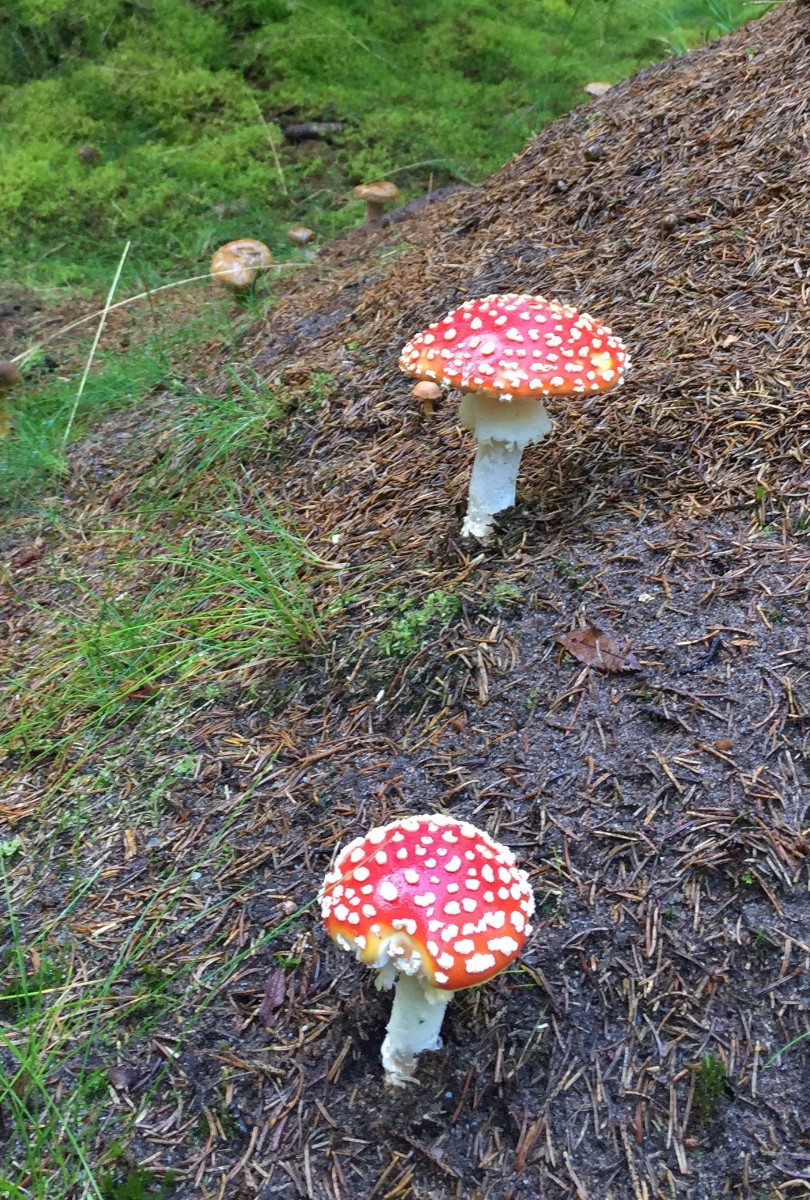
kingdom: Fungi
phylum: Basidiomycota
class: Agaricomycetes
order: Agaricales
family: Amanitaceae
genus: Amanita
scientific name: Amanita muscaria
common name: rød fluesvamp
